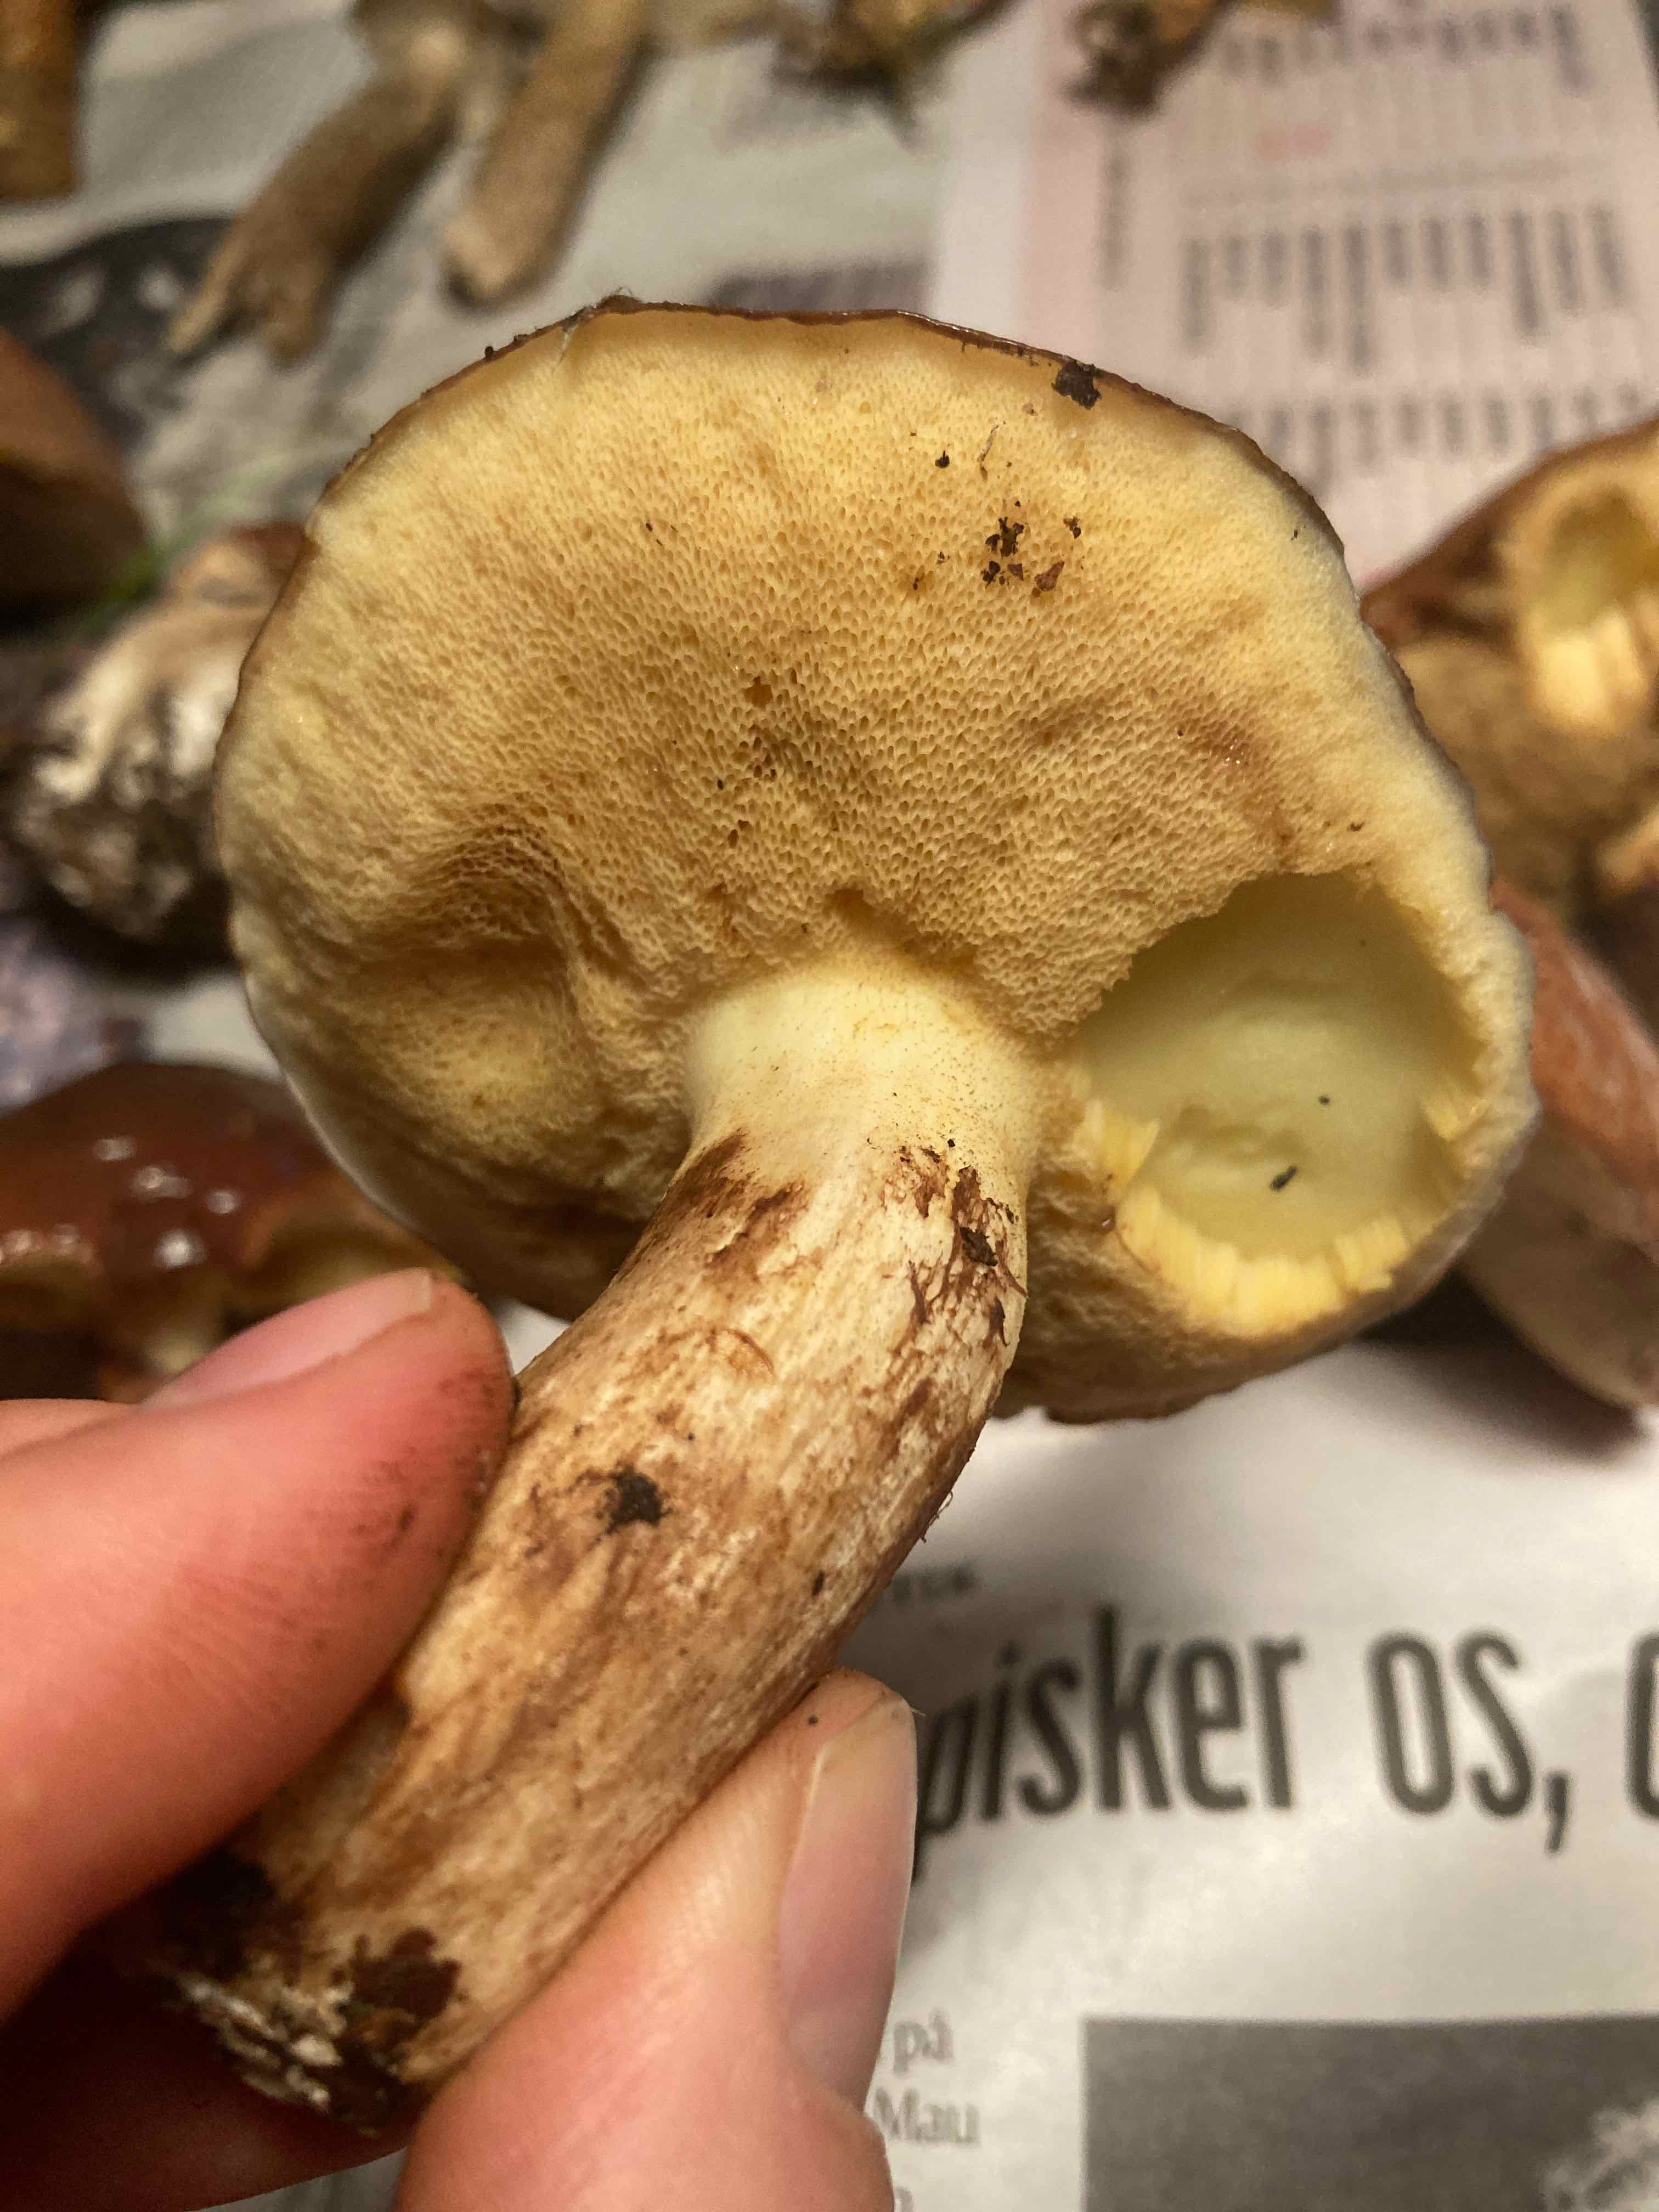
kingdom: Fungi
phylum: Basidiomycota
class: Agaricomycetes
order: Boletales
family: Suillaceae
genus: Suillus
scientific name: Suillus luteus
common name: brungul slimrørhat
